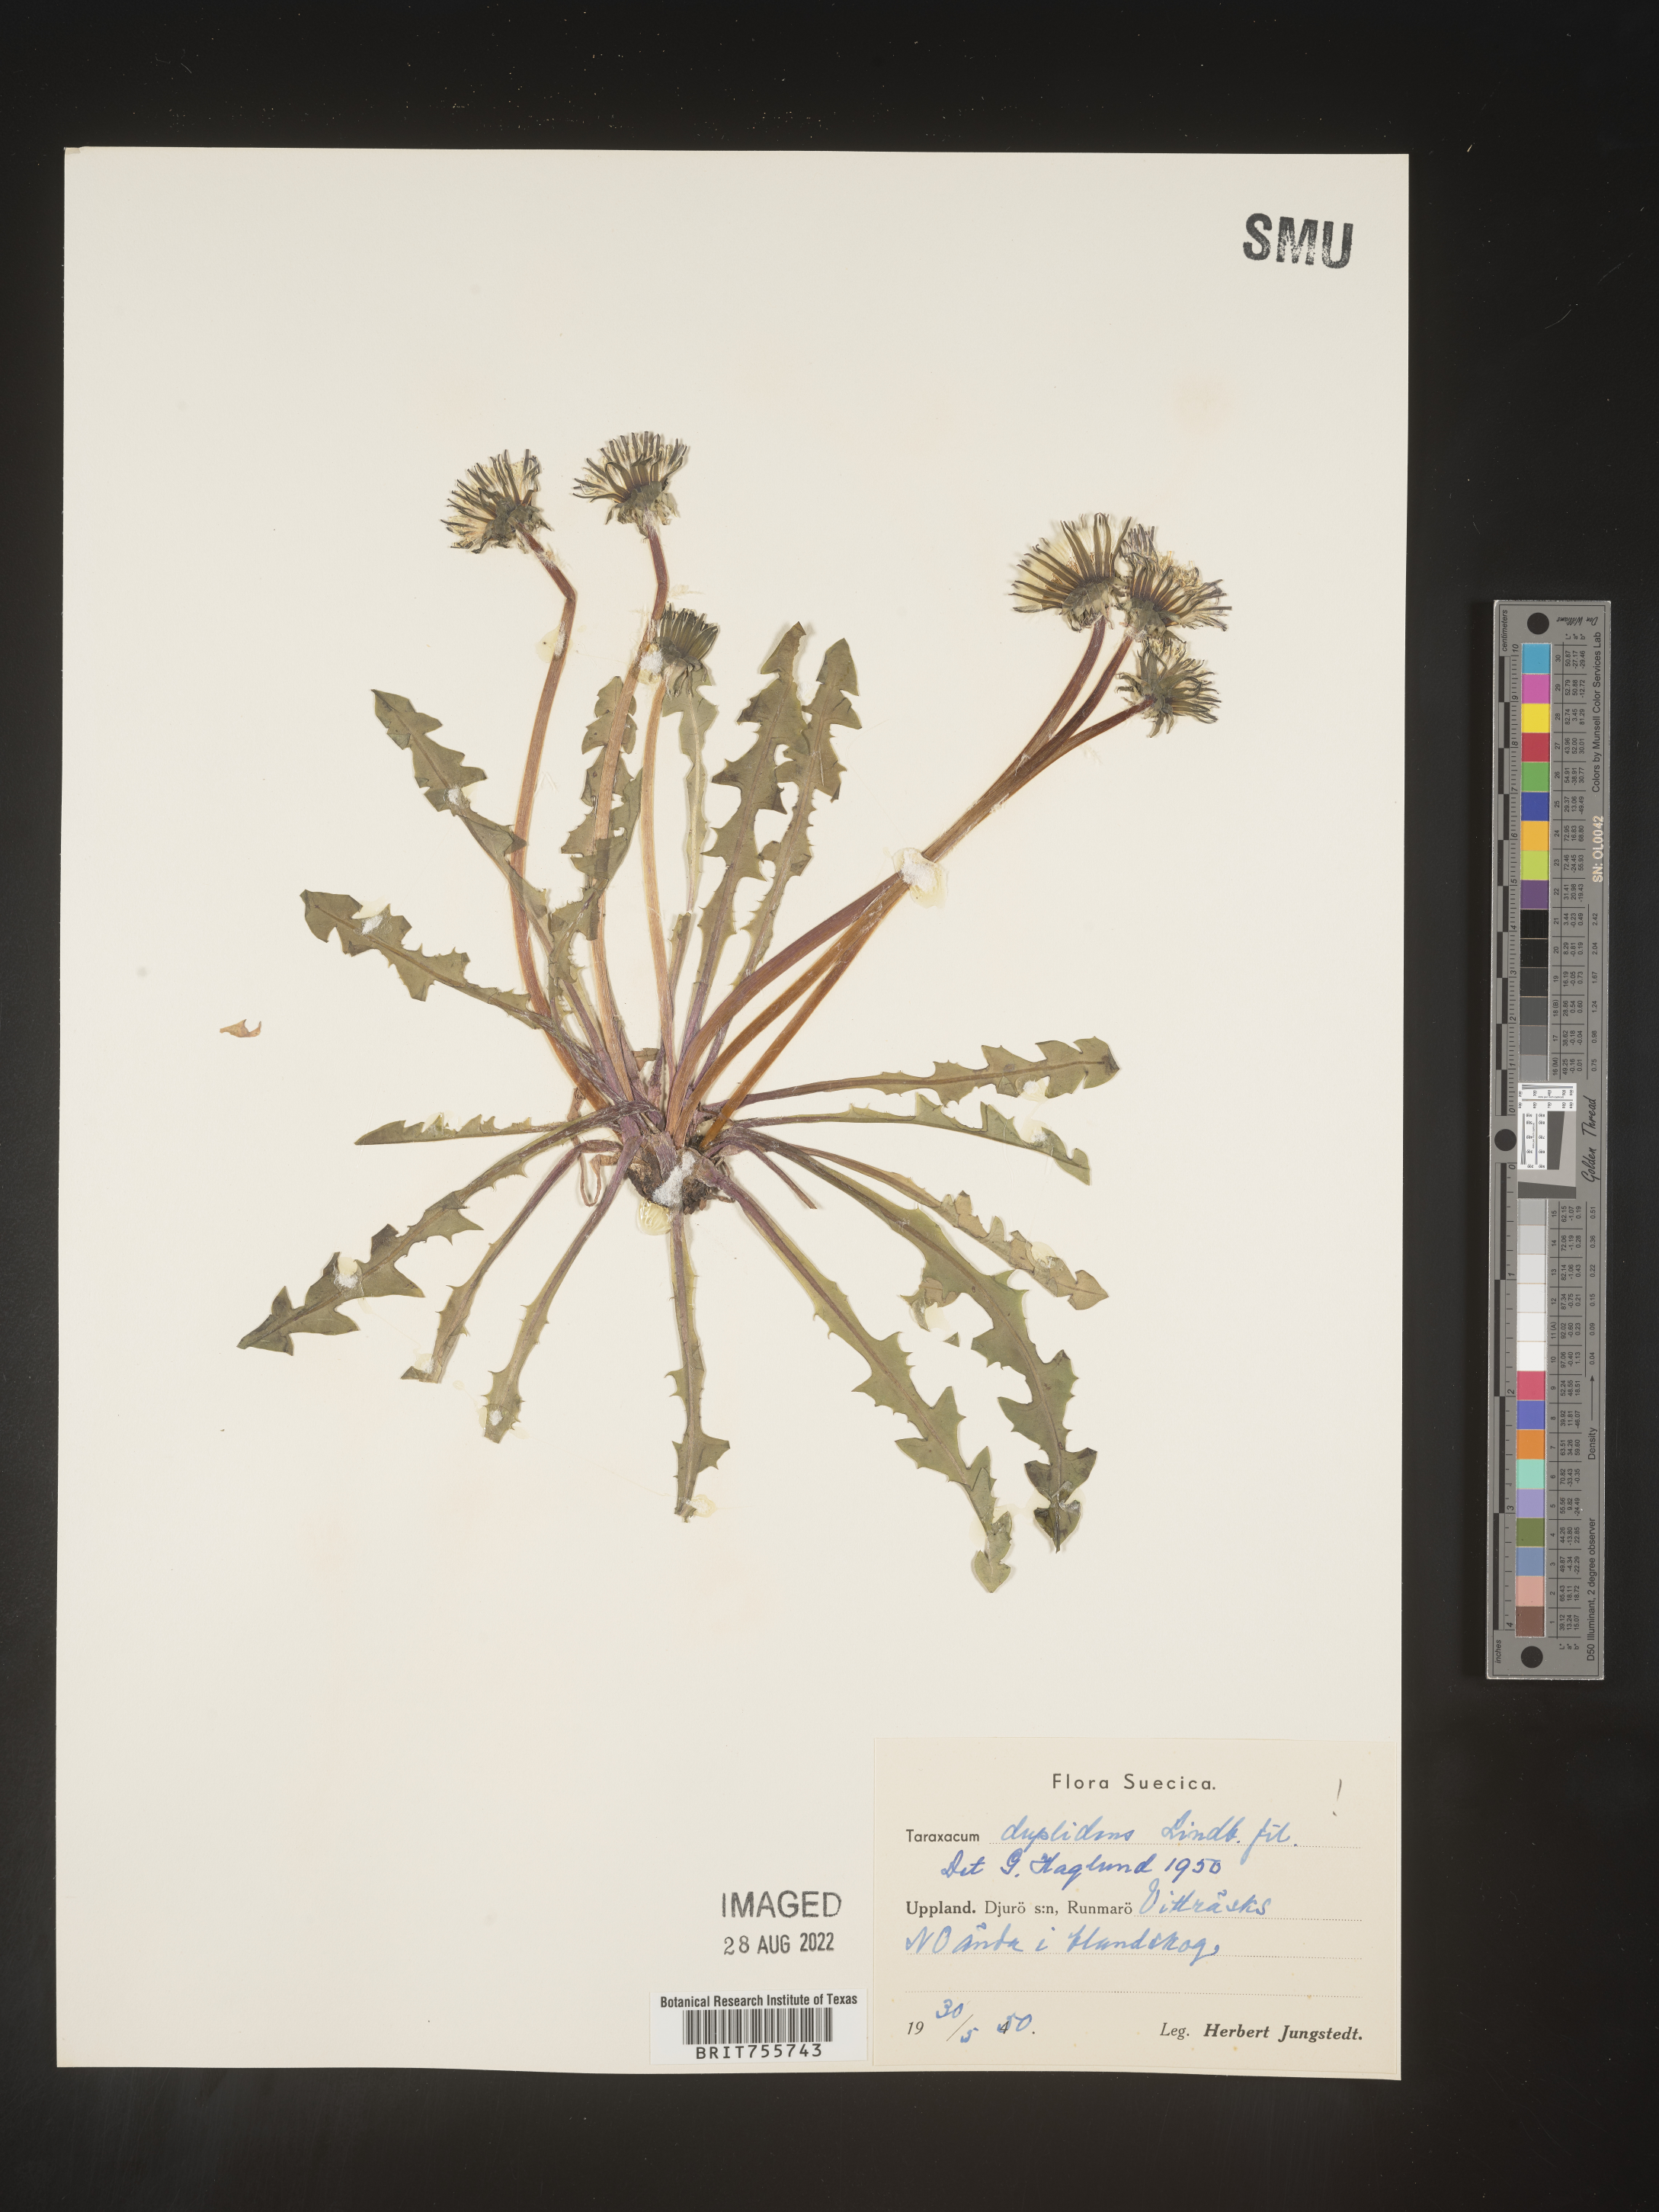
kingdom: Plantae
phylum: Tracheophyta
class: Magnoliopsida
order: Asterales
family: Asteraceae
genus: Taraxacum
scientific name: Taraxacum
